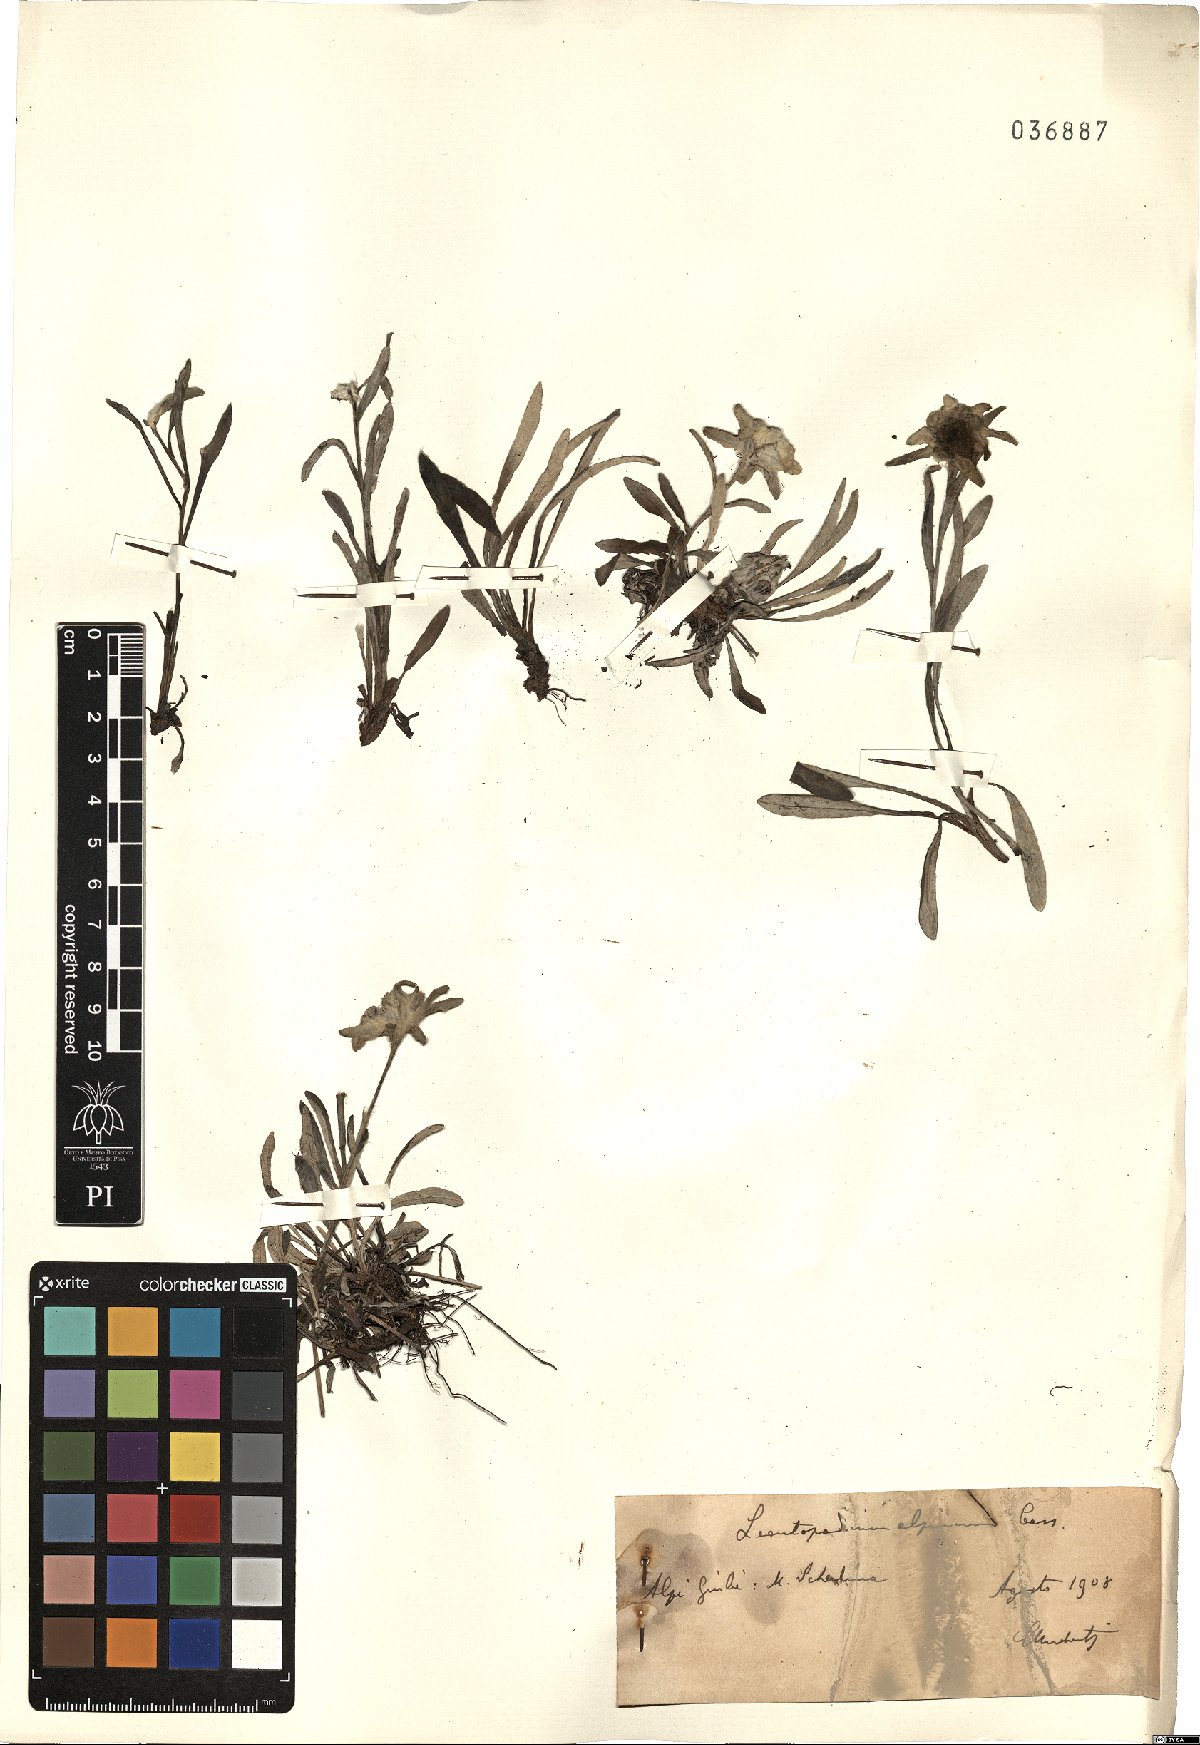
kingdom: Plantae
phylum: Tracheophyta
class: Magnoliopsida
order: Asterales
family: Asteraceae
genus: Leontopodium
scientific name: Leontopodium nivale
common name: Edelweiss
